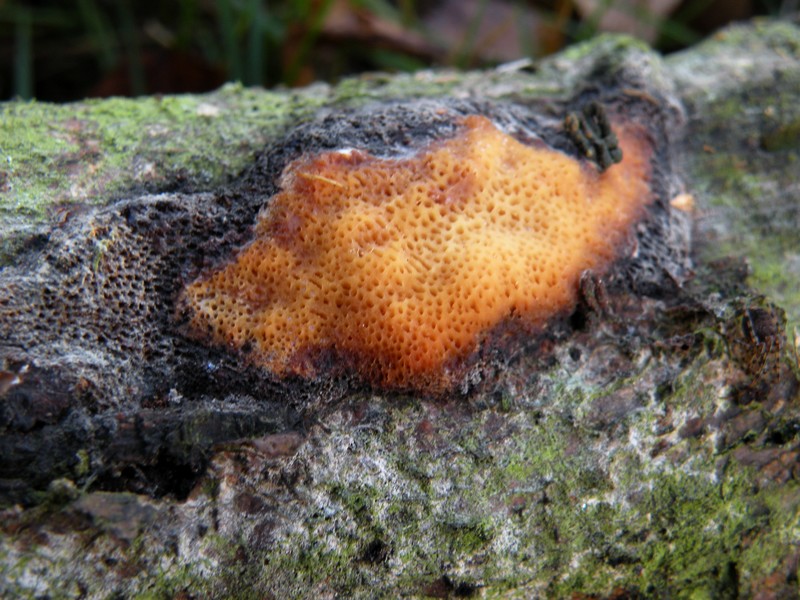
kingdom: Fungi
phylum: Basidiomycota
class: Agaricomycetes
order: Polyporales
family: Polyporaceae
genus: Szczepkamyces
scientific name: Szczepkamyces campestris
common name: hasselporesvamp
